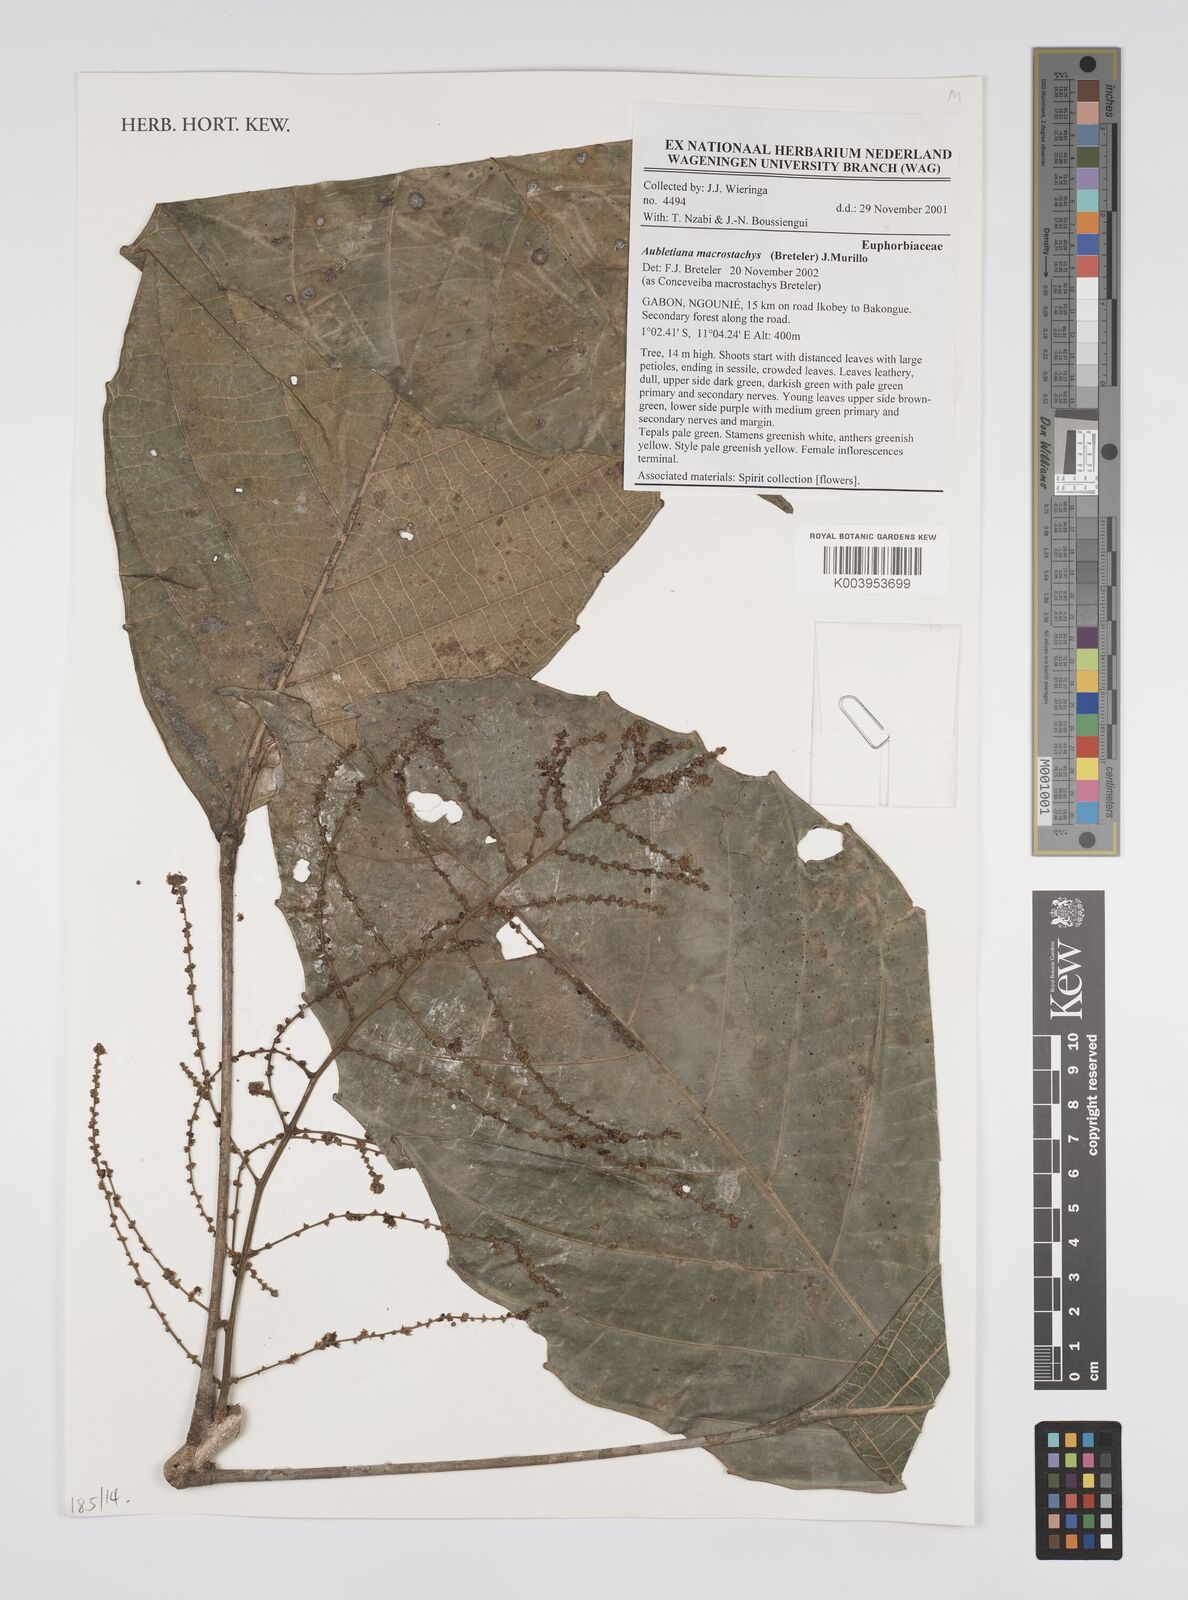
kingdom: Plantae
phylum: Tracheophyta
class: Magnoliopsida
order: Malpighiales
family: Euphorbiaceae
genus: Aubletiana
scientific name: Aubletiana macrostachys
